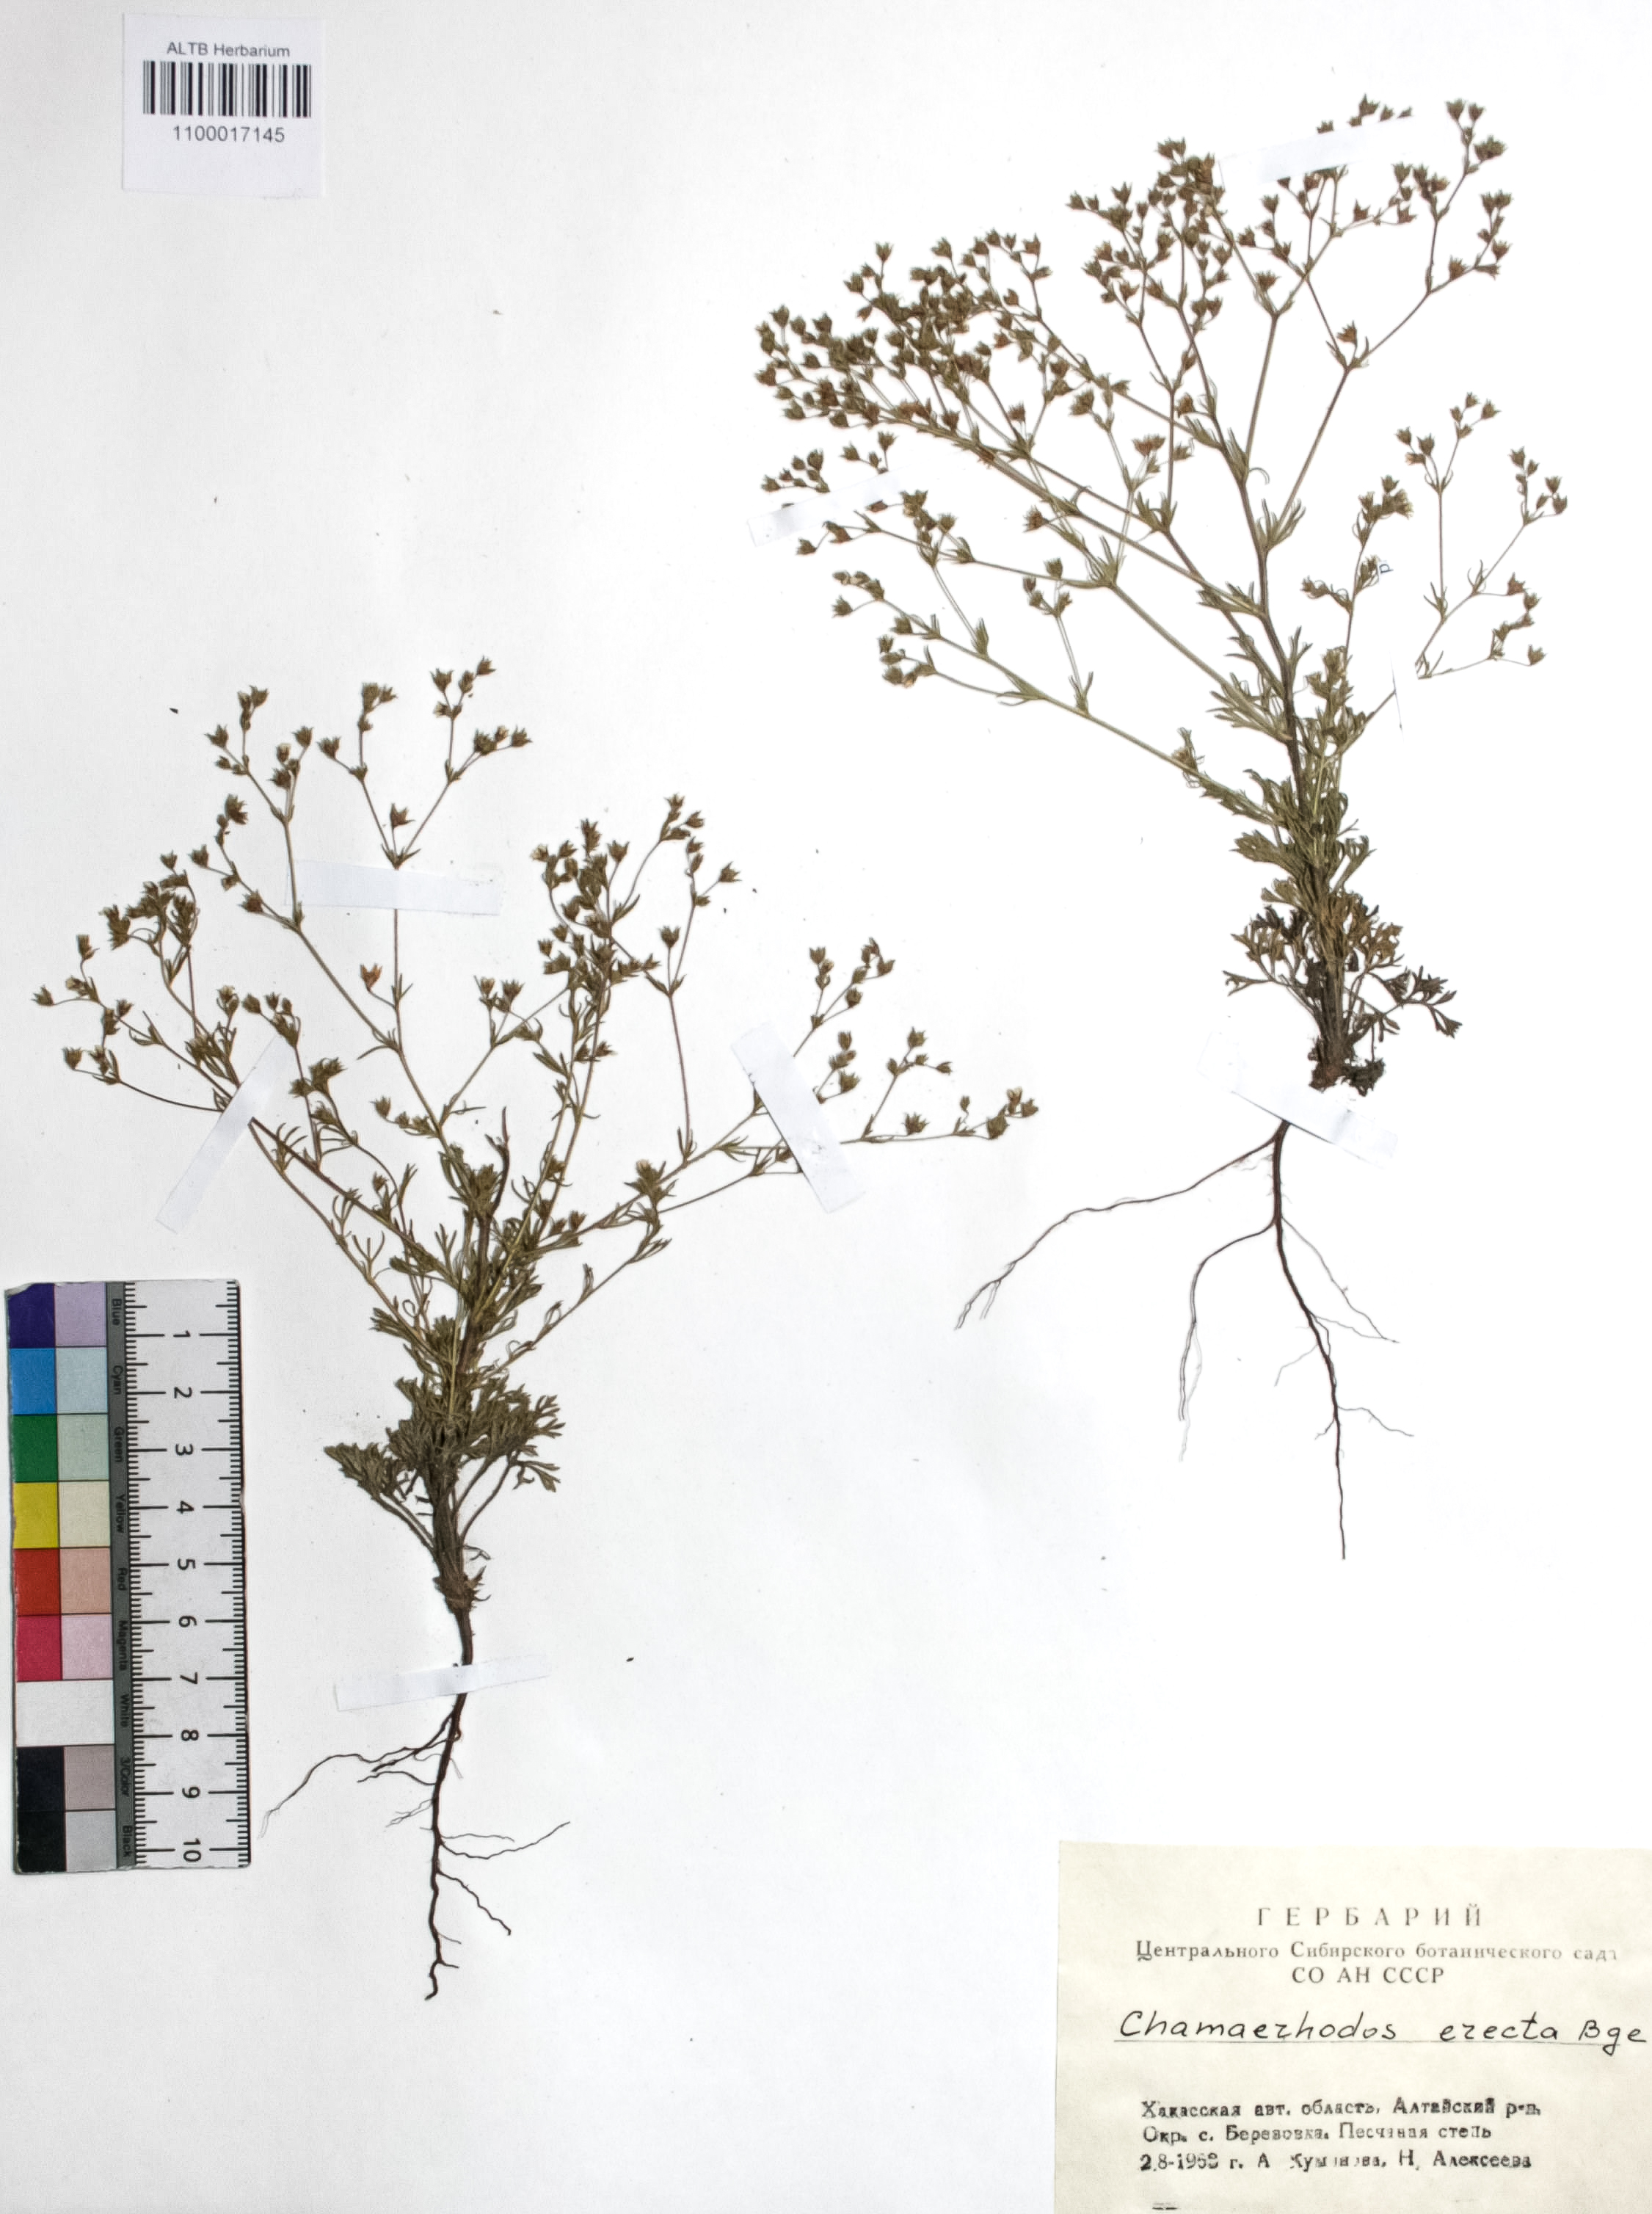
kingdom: Plantae
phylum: Tracheophyta
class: Magnoliopsida
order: Rosales
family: Rosaceae
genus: Chamaerhodos
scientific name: Chamaerhodos erecta
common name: American chamaerhodos
